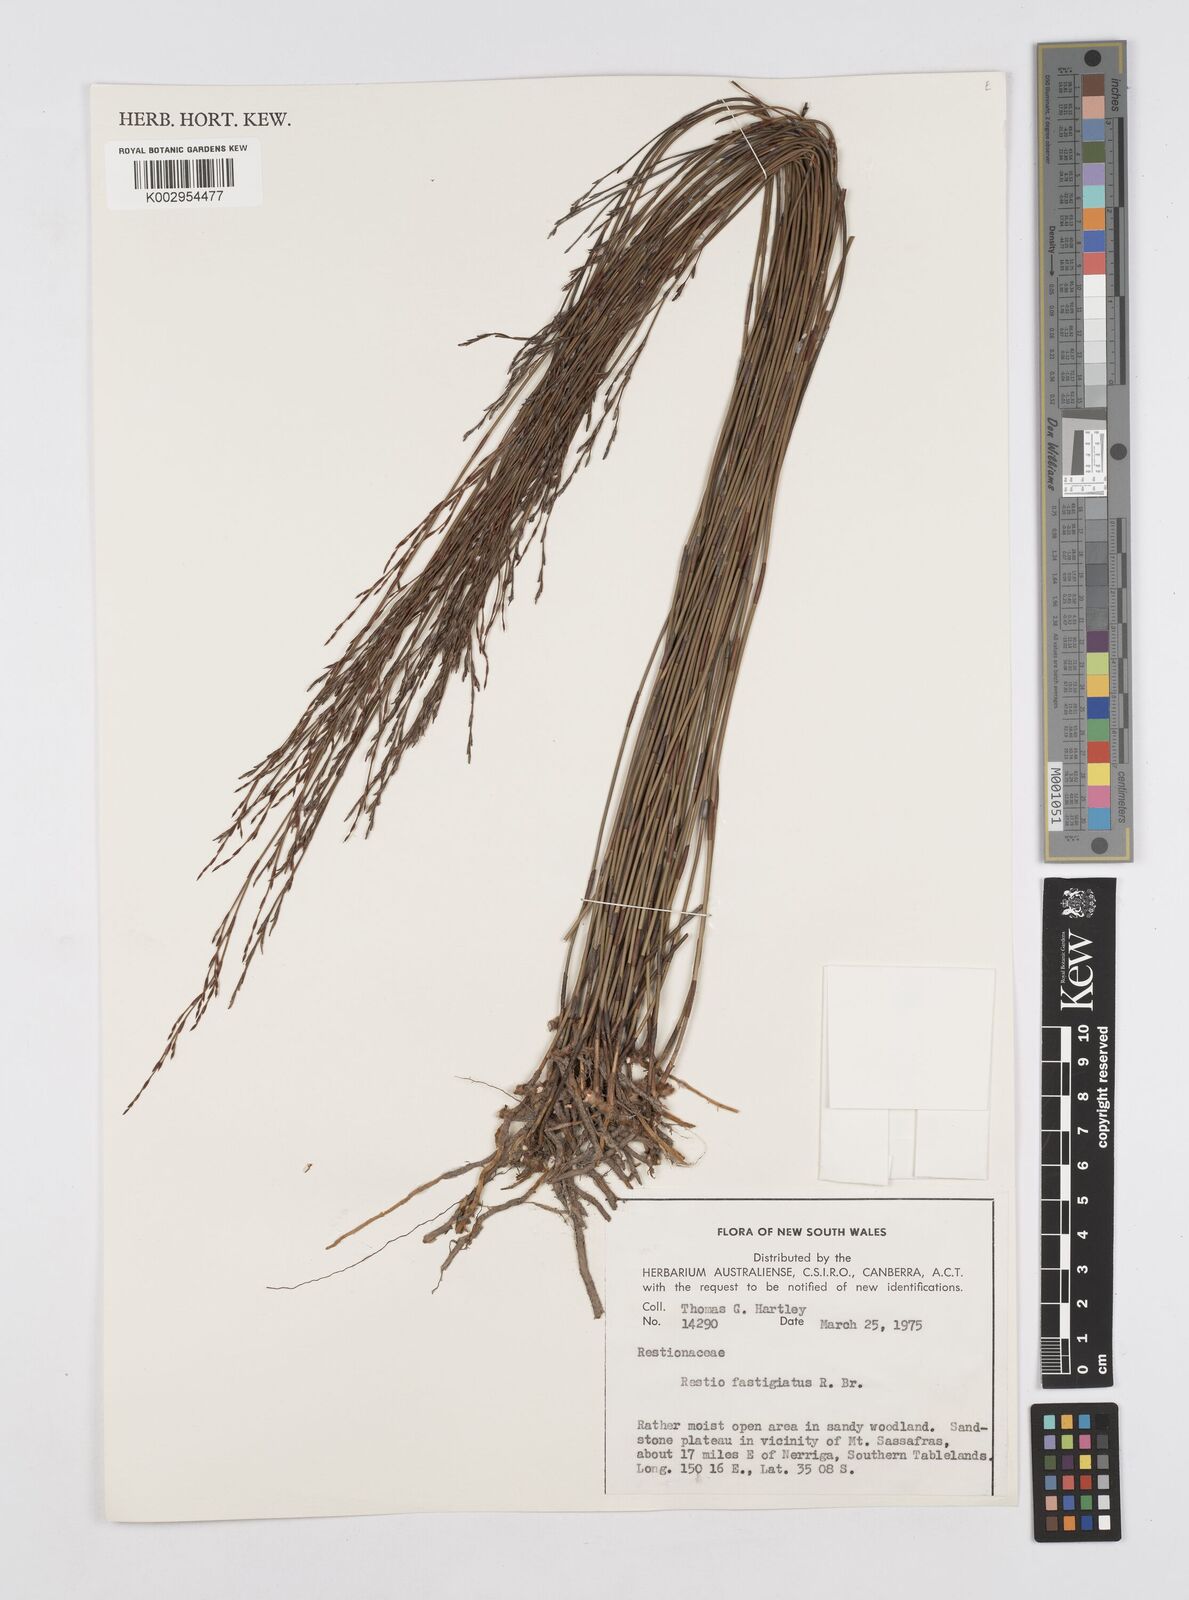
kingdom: Plantae
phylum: Tracheophyta
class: Liliopsida
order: Poales
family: Restionaceae
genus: Chordifex
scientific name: Chordifex fastigiatus
